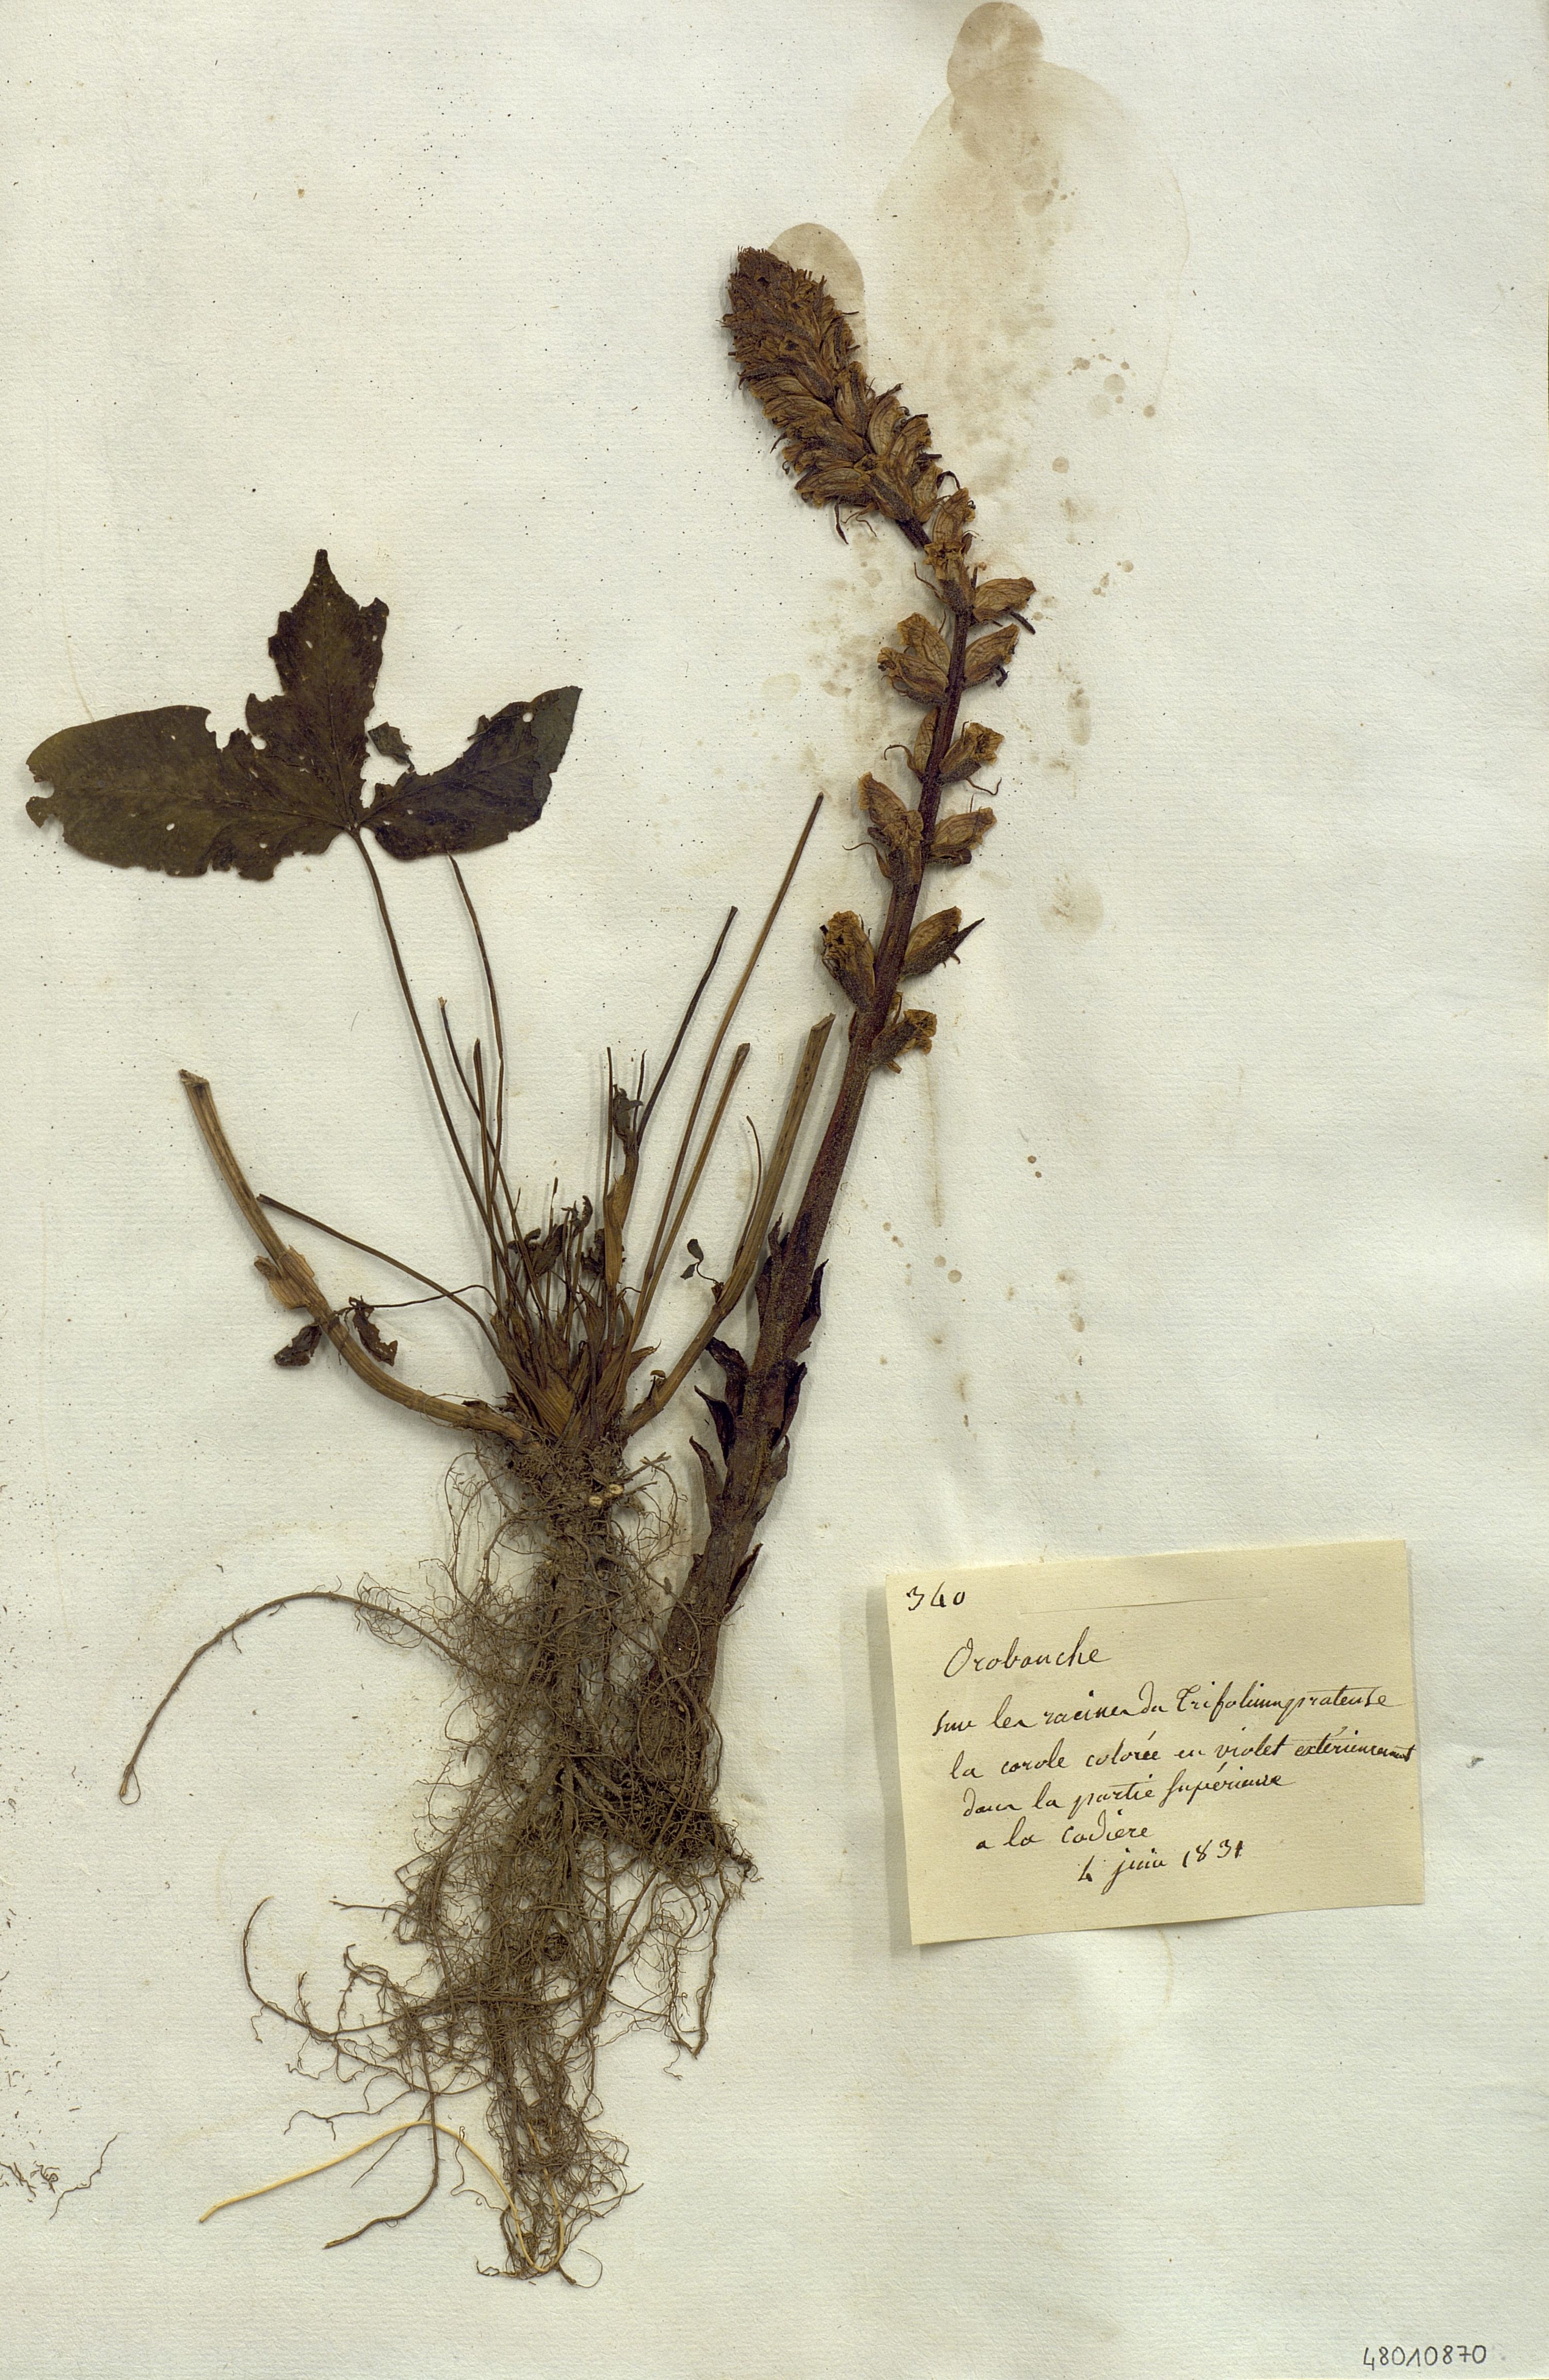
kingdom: Plantae
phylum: Tracheophyta
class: Magnoliopsida
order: Lamiales
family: Scrophulariaceae
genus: Orabanche
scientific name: Orabanche
